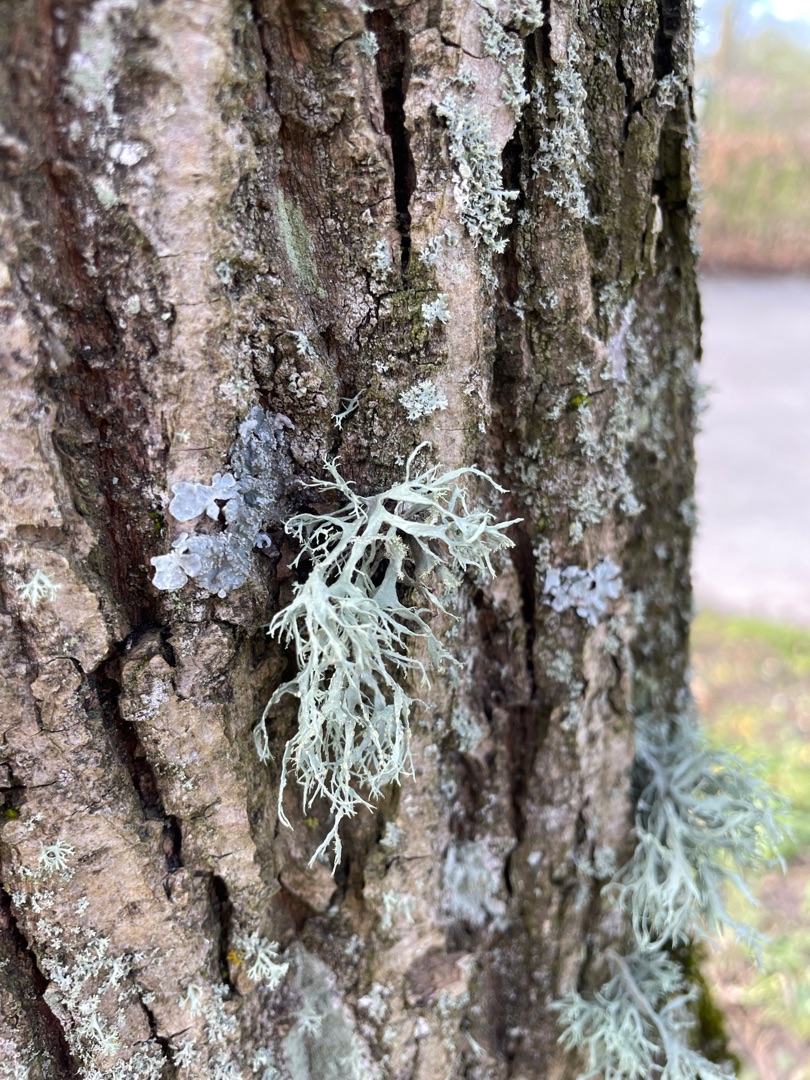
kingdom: Fungi
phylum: Ascomycota
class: Lecanoromycetes
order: Lecanorales
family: Ramalinaceae
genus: Ramalina
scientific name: Ramalina farinacea
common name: Melet grenlav
